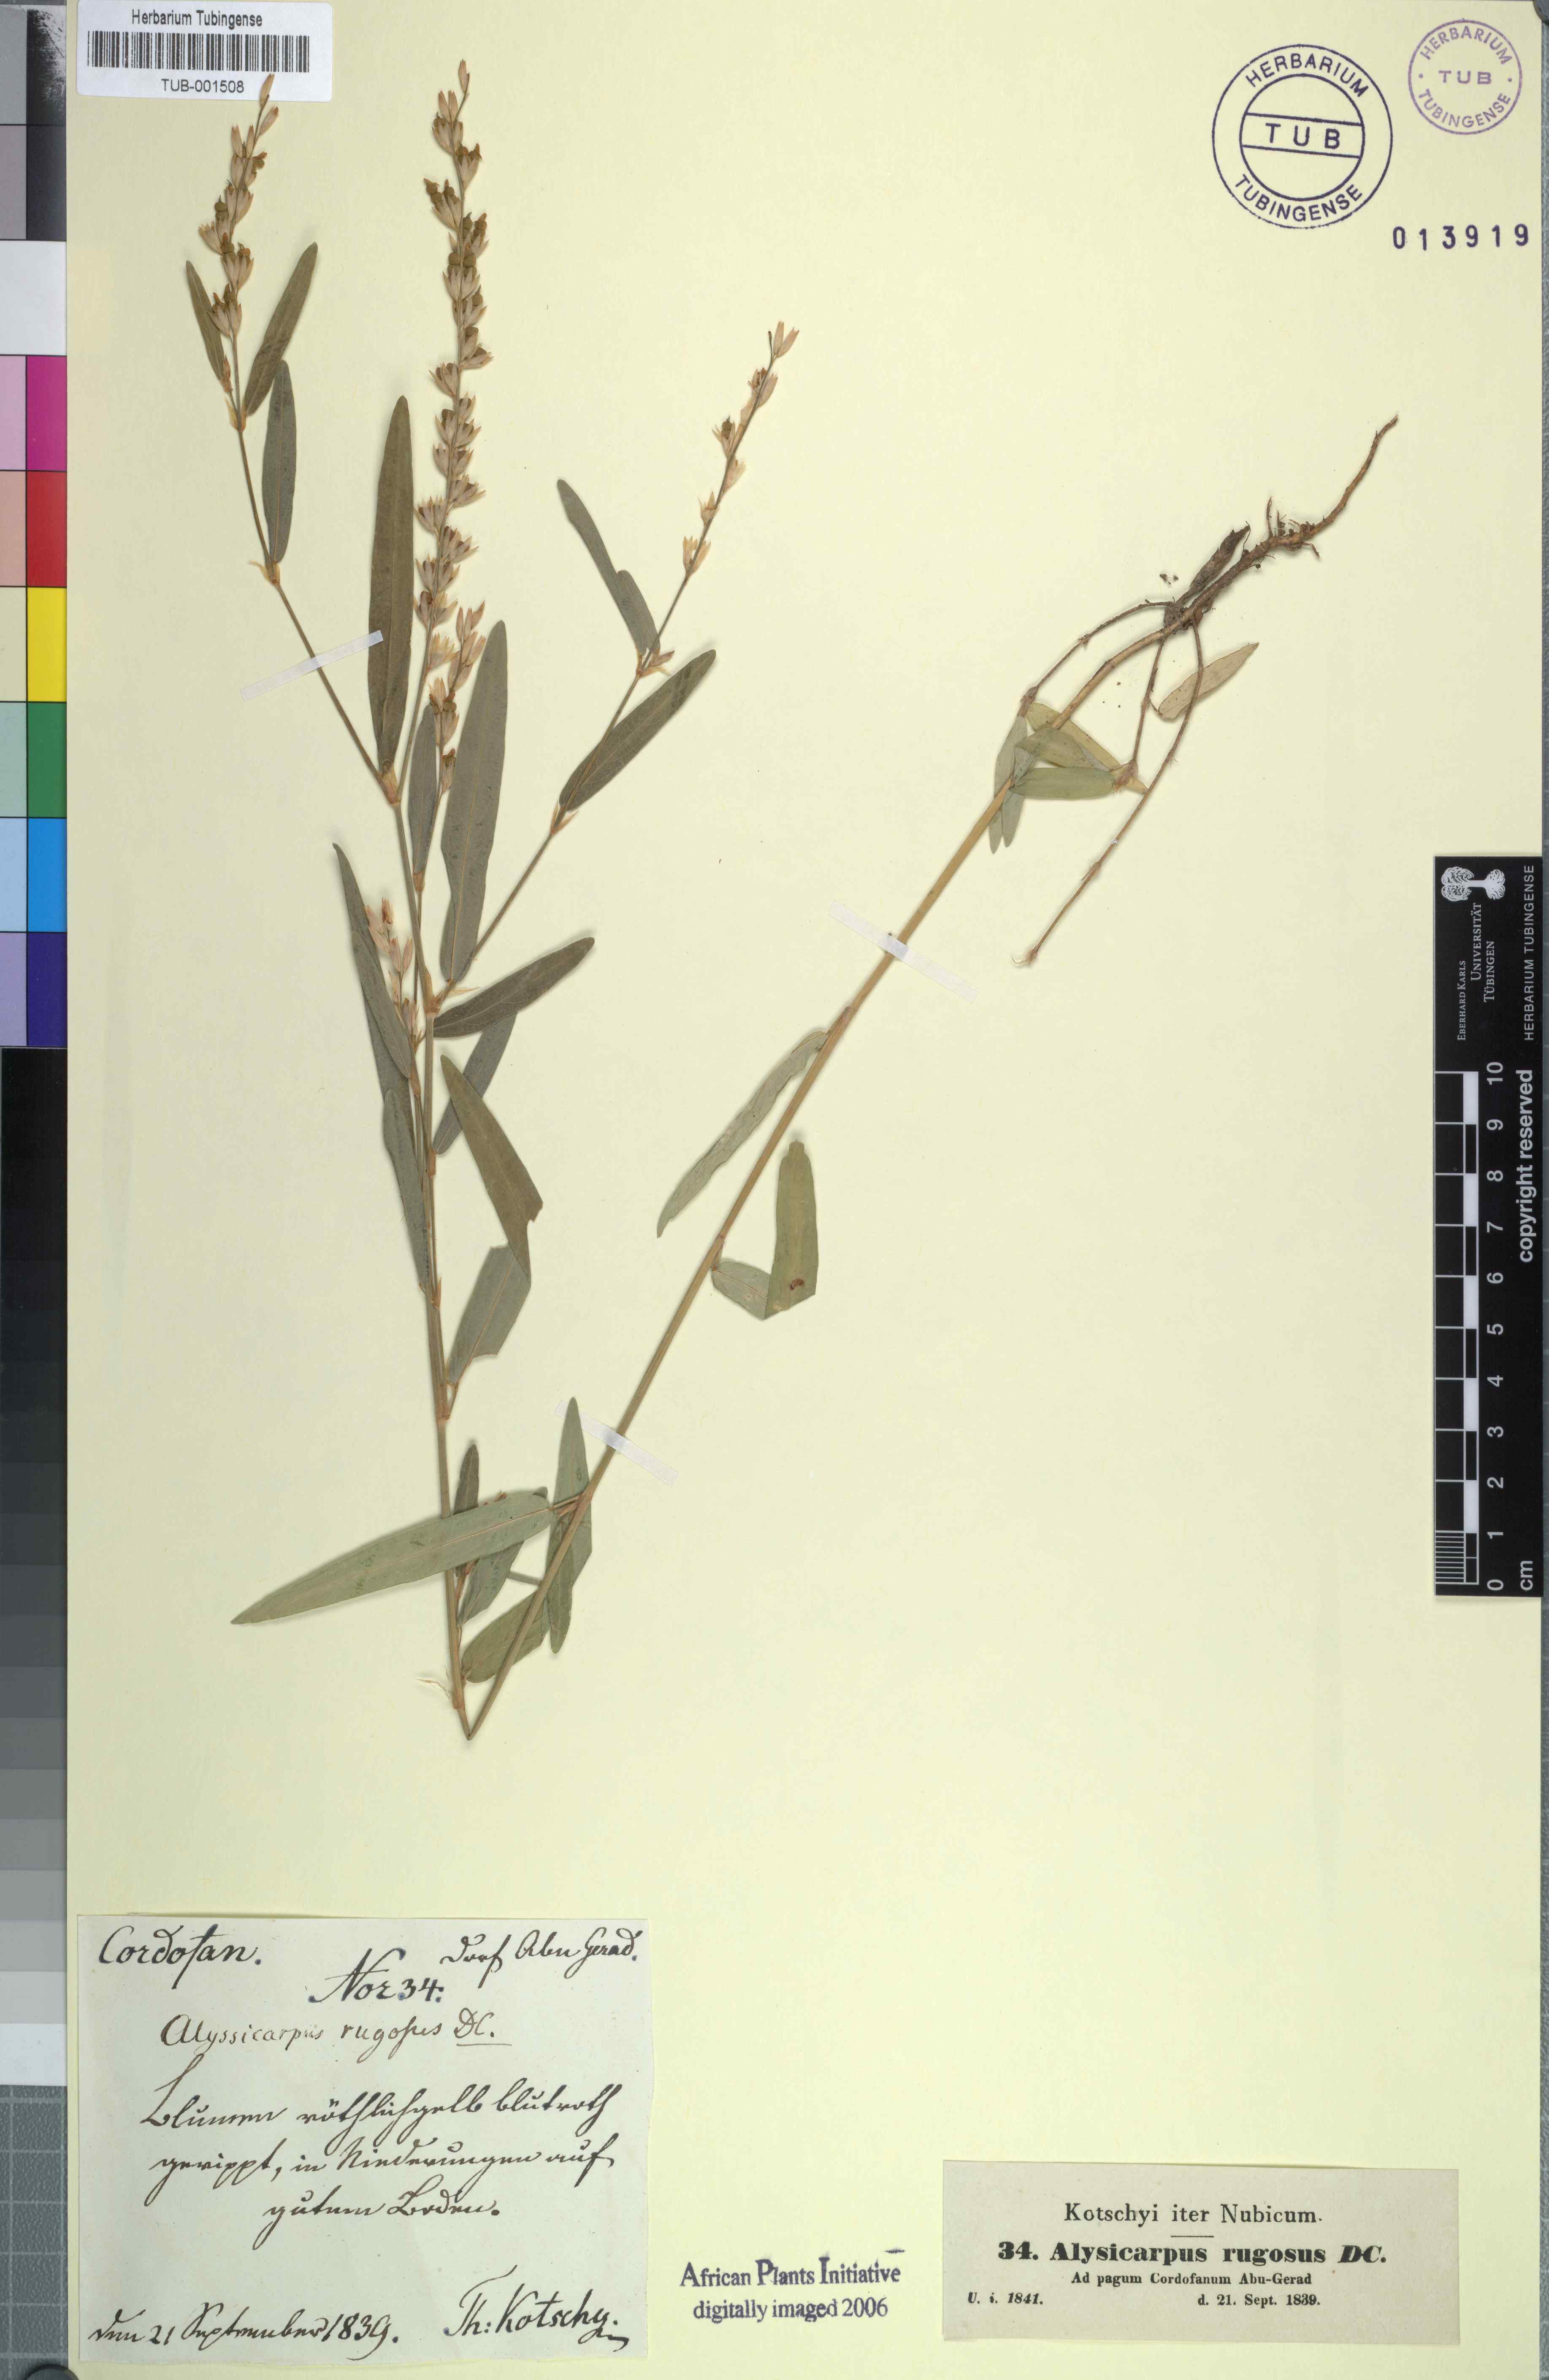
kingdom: Plantae
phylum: Tracheophyta
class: Magnoliopsida
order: Fabales
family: Fabaceae
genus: Alysicarpus
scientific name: Alysicarpus rugosus
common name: Red moneywort
